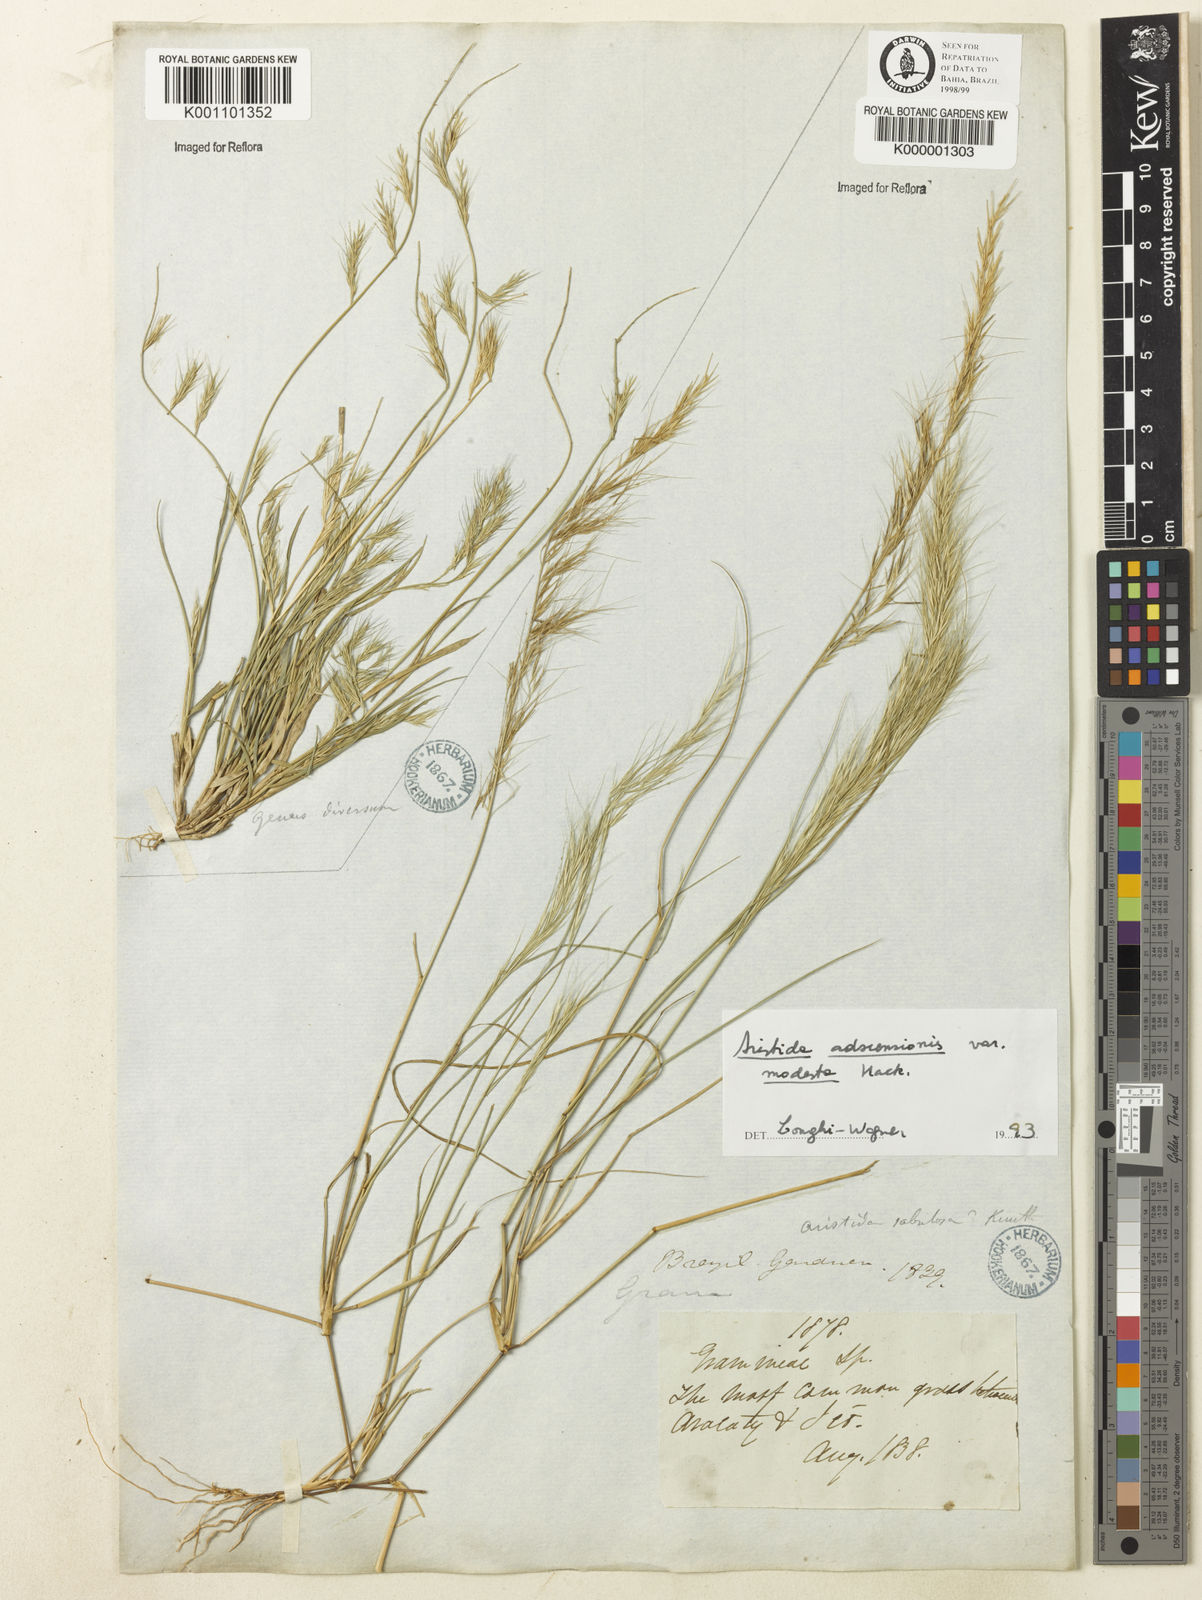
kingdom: Plantae
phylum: Tracheophyta
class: Liliopsida
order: Poales
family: Poaceae
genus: Aristida
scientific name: Aristida adscensionis
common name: Sixweeks threeawn
